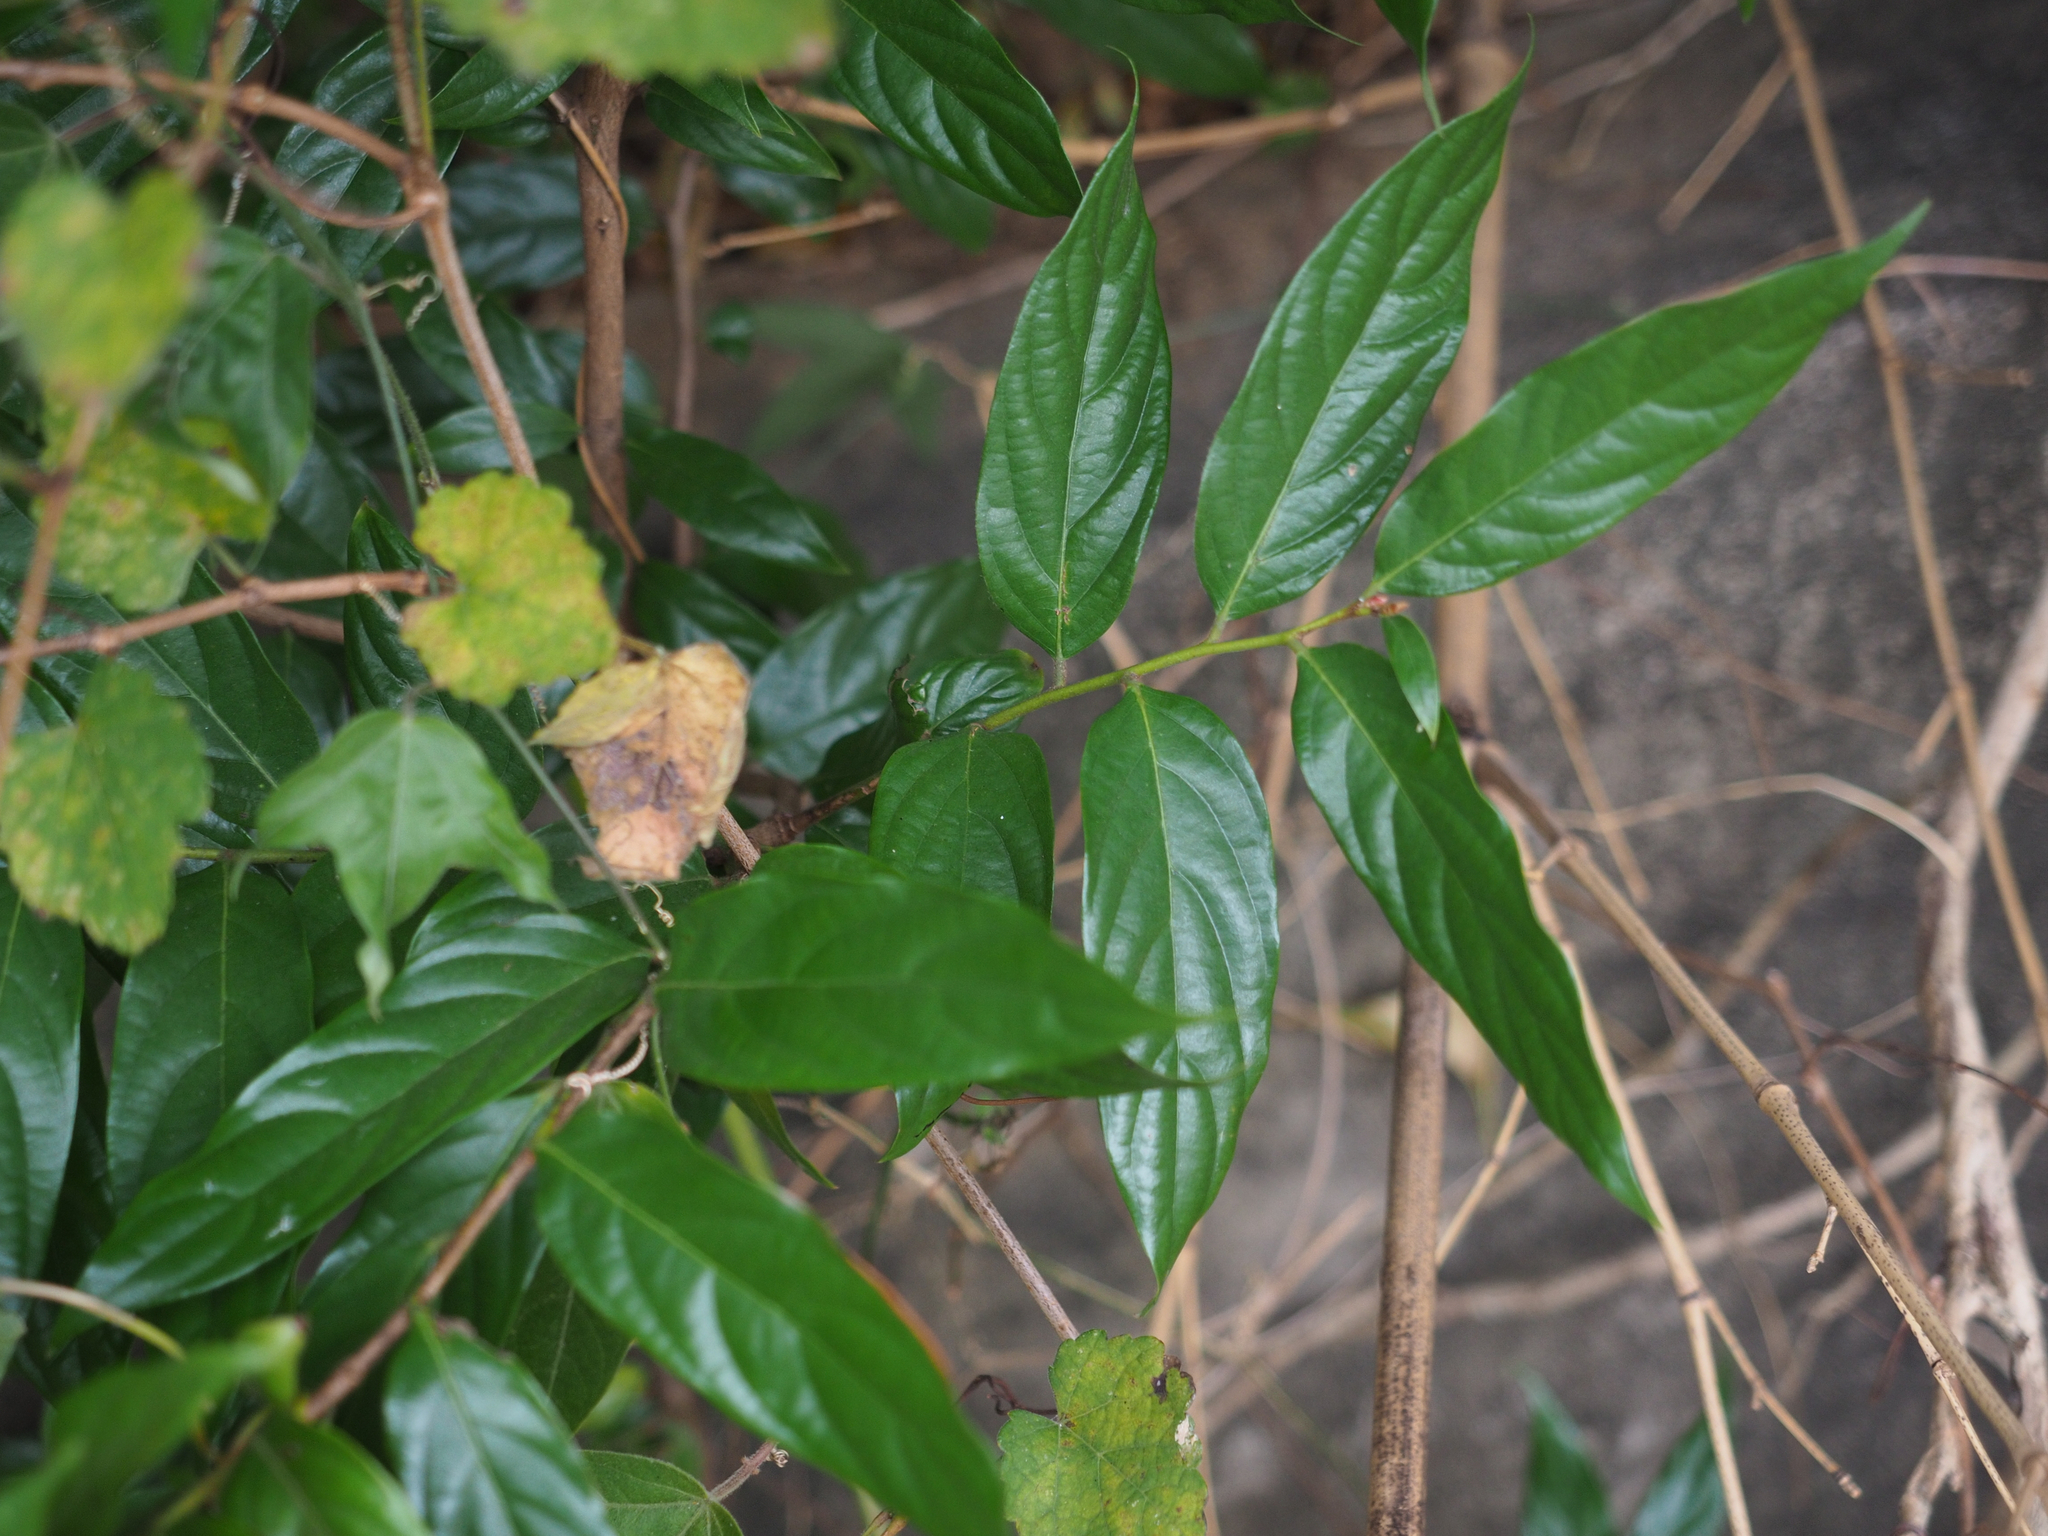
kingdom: Plantae
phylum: Tracheophyta
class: Magnoliopsida
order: Ericales
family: Ebenaceae
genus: Diospyros
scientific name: Diospyros eriantha
